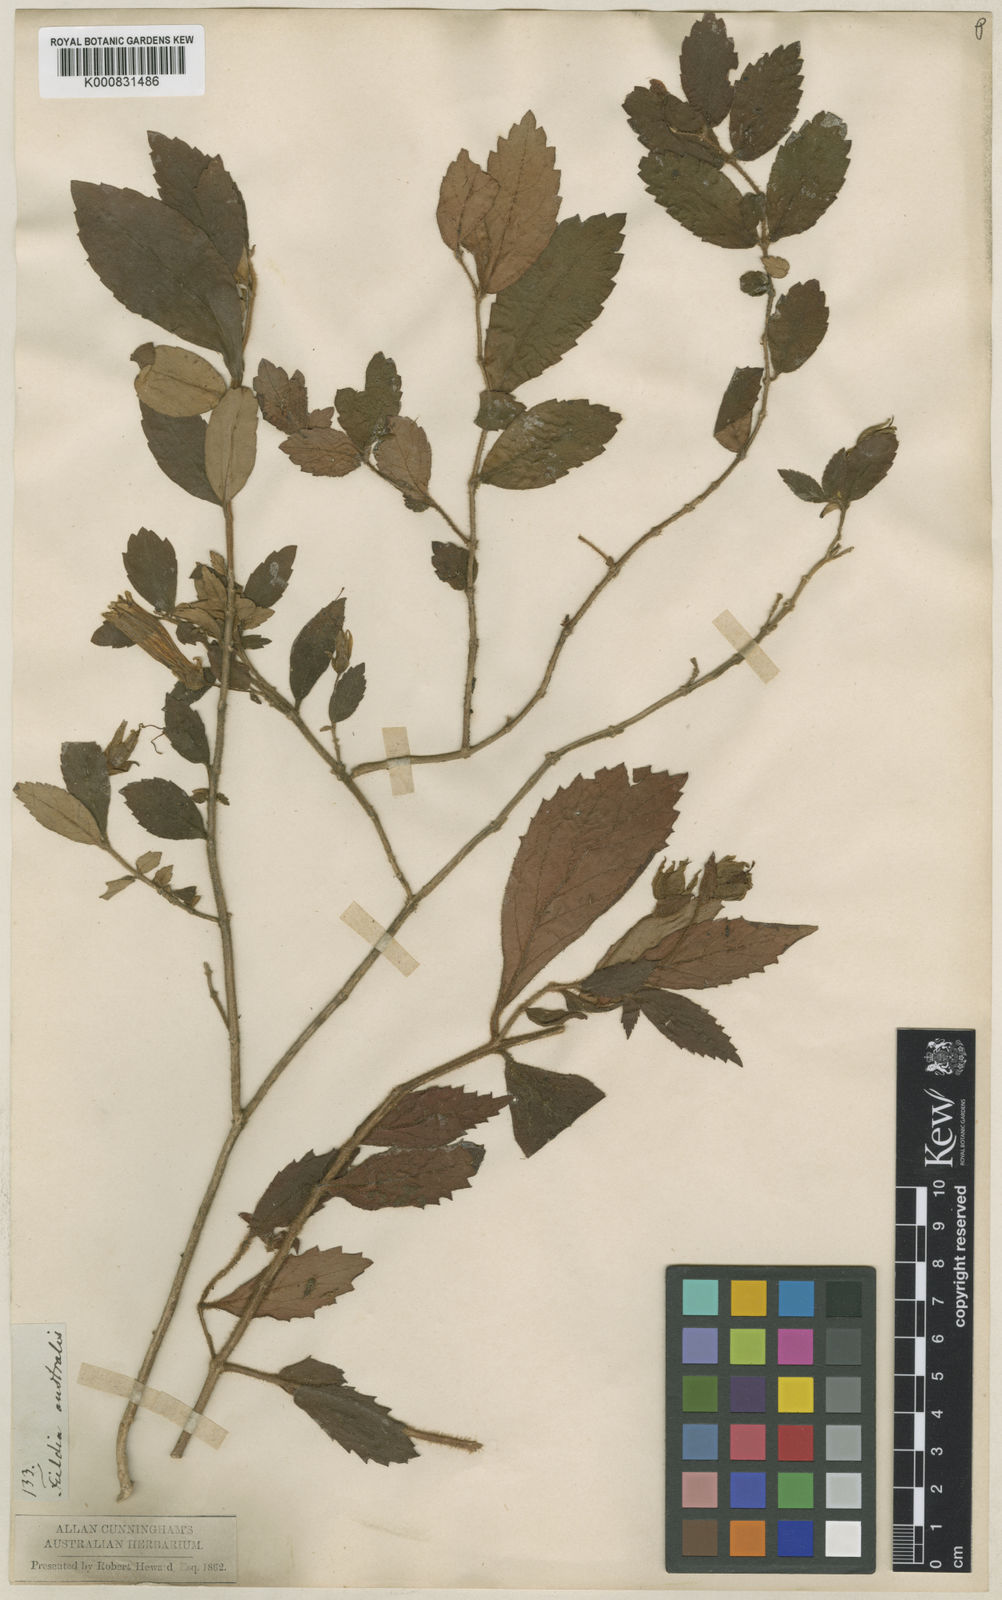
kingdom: Plantae
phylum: Tracheophyta
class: Magnoliopsida
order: Lamiales
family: Gesneriaceae
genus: Fieldia
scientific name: Fieldia australis
